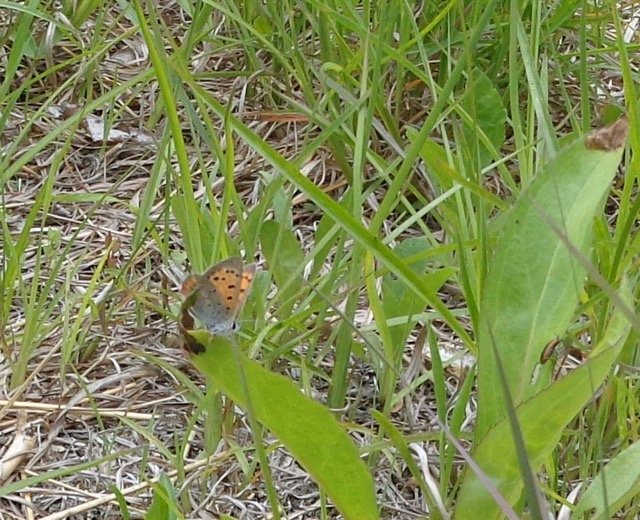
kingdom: Animalia
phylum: Arthropoda
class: Insecta
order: Lepidoptera
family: Lycaenidae
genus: Lycaena
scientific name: Lycaena phlaeas
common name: American Copper
